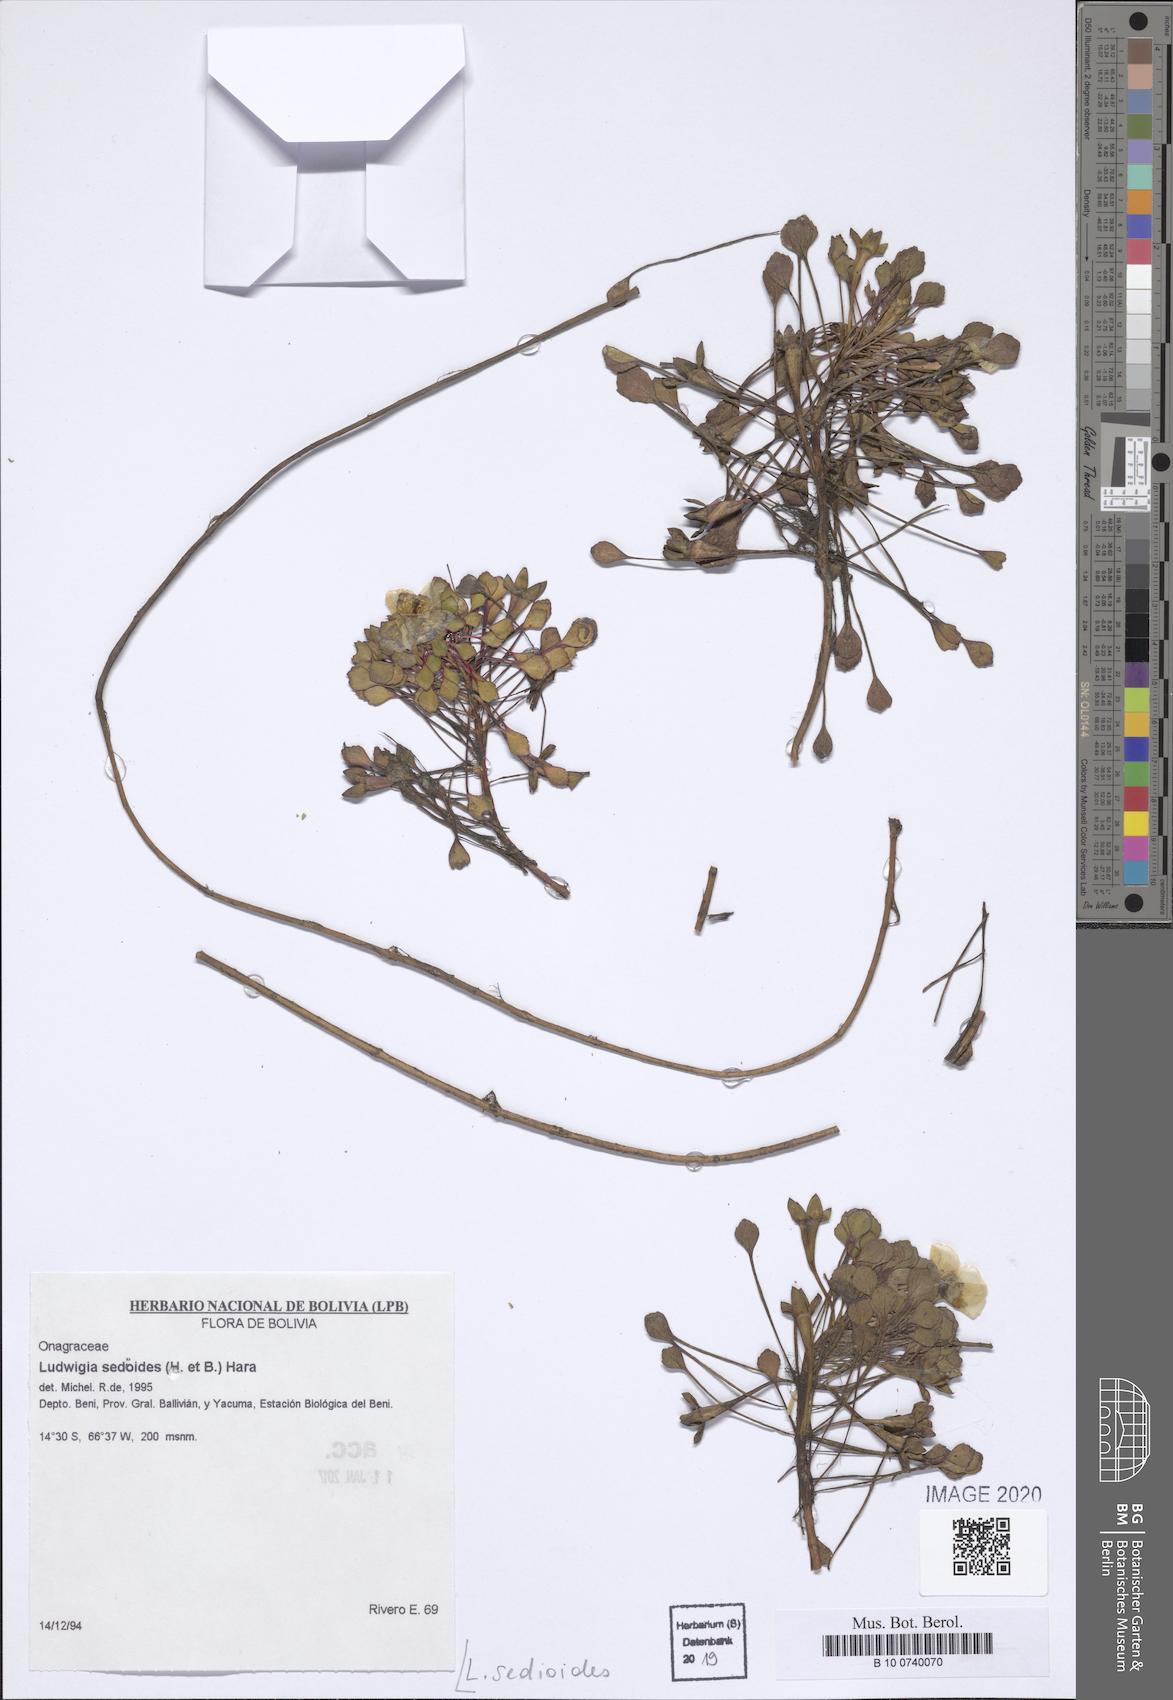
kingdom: Plantae
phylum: Tracheophyta
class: Magnoliopsida
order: Myrtales
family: Onagraceae
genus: Ludwigia
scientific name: Ludwigia sedoides
